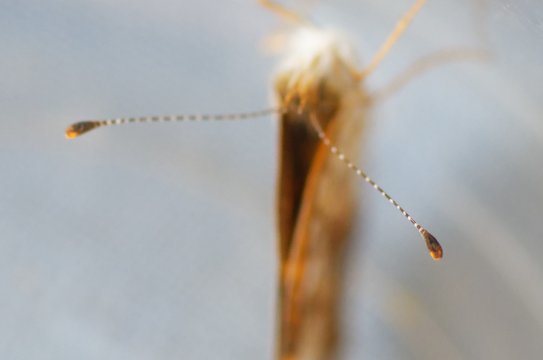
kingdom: Animalia
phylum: Arthropoda
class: Insecta
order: Lepidoptera
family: Nymphalidae
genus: Phyciodes
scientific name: Phyciodes tharos
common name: Pearl Crescent
